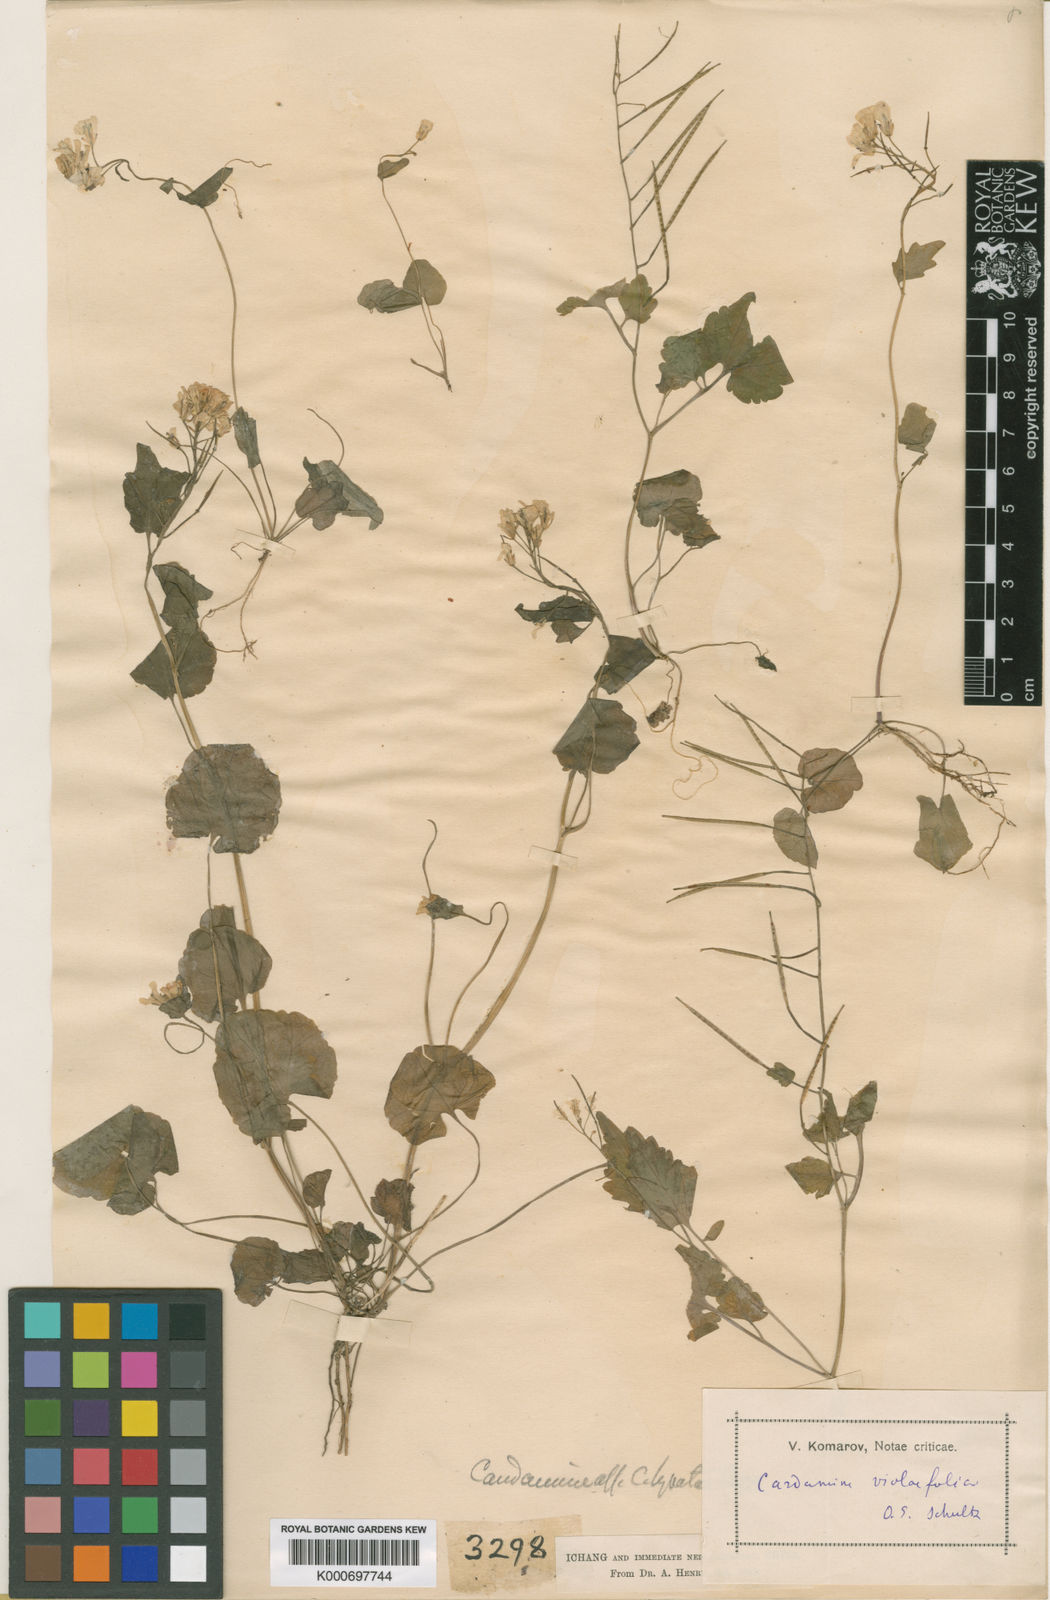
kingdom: Plantae
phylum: Tracheophyta
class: Magnoliopsida
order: Brassicales
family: Brassicaceae
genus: Cardamine
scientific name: Cardamine circaeoides
